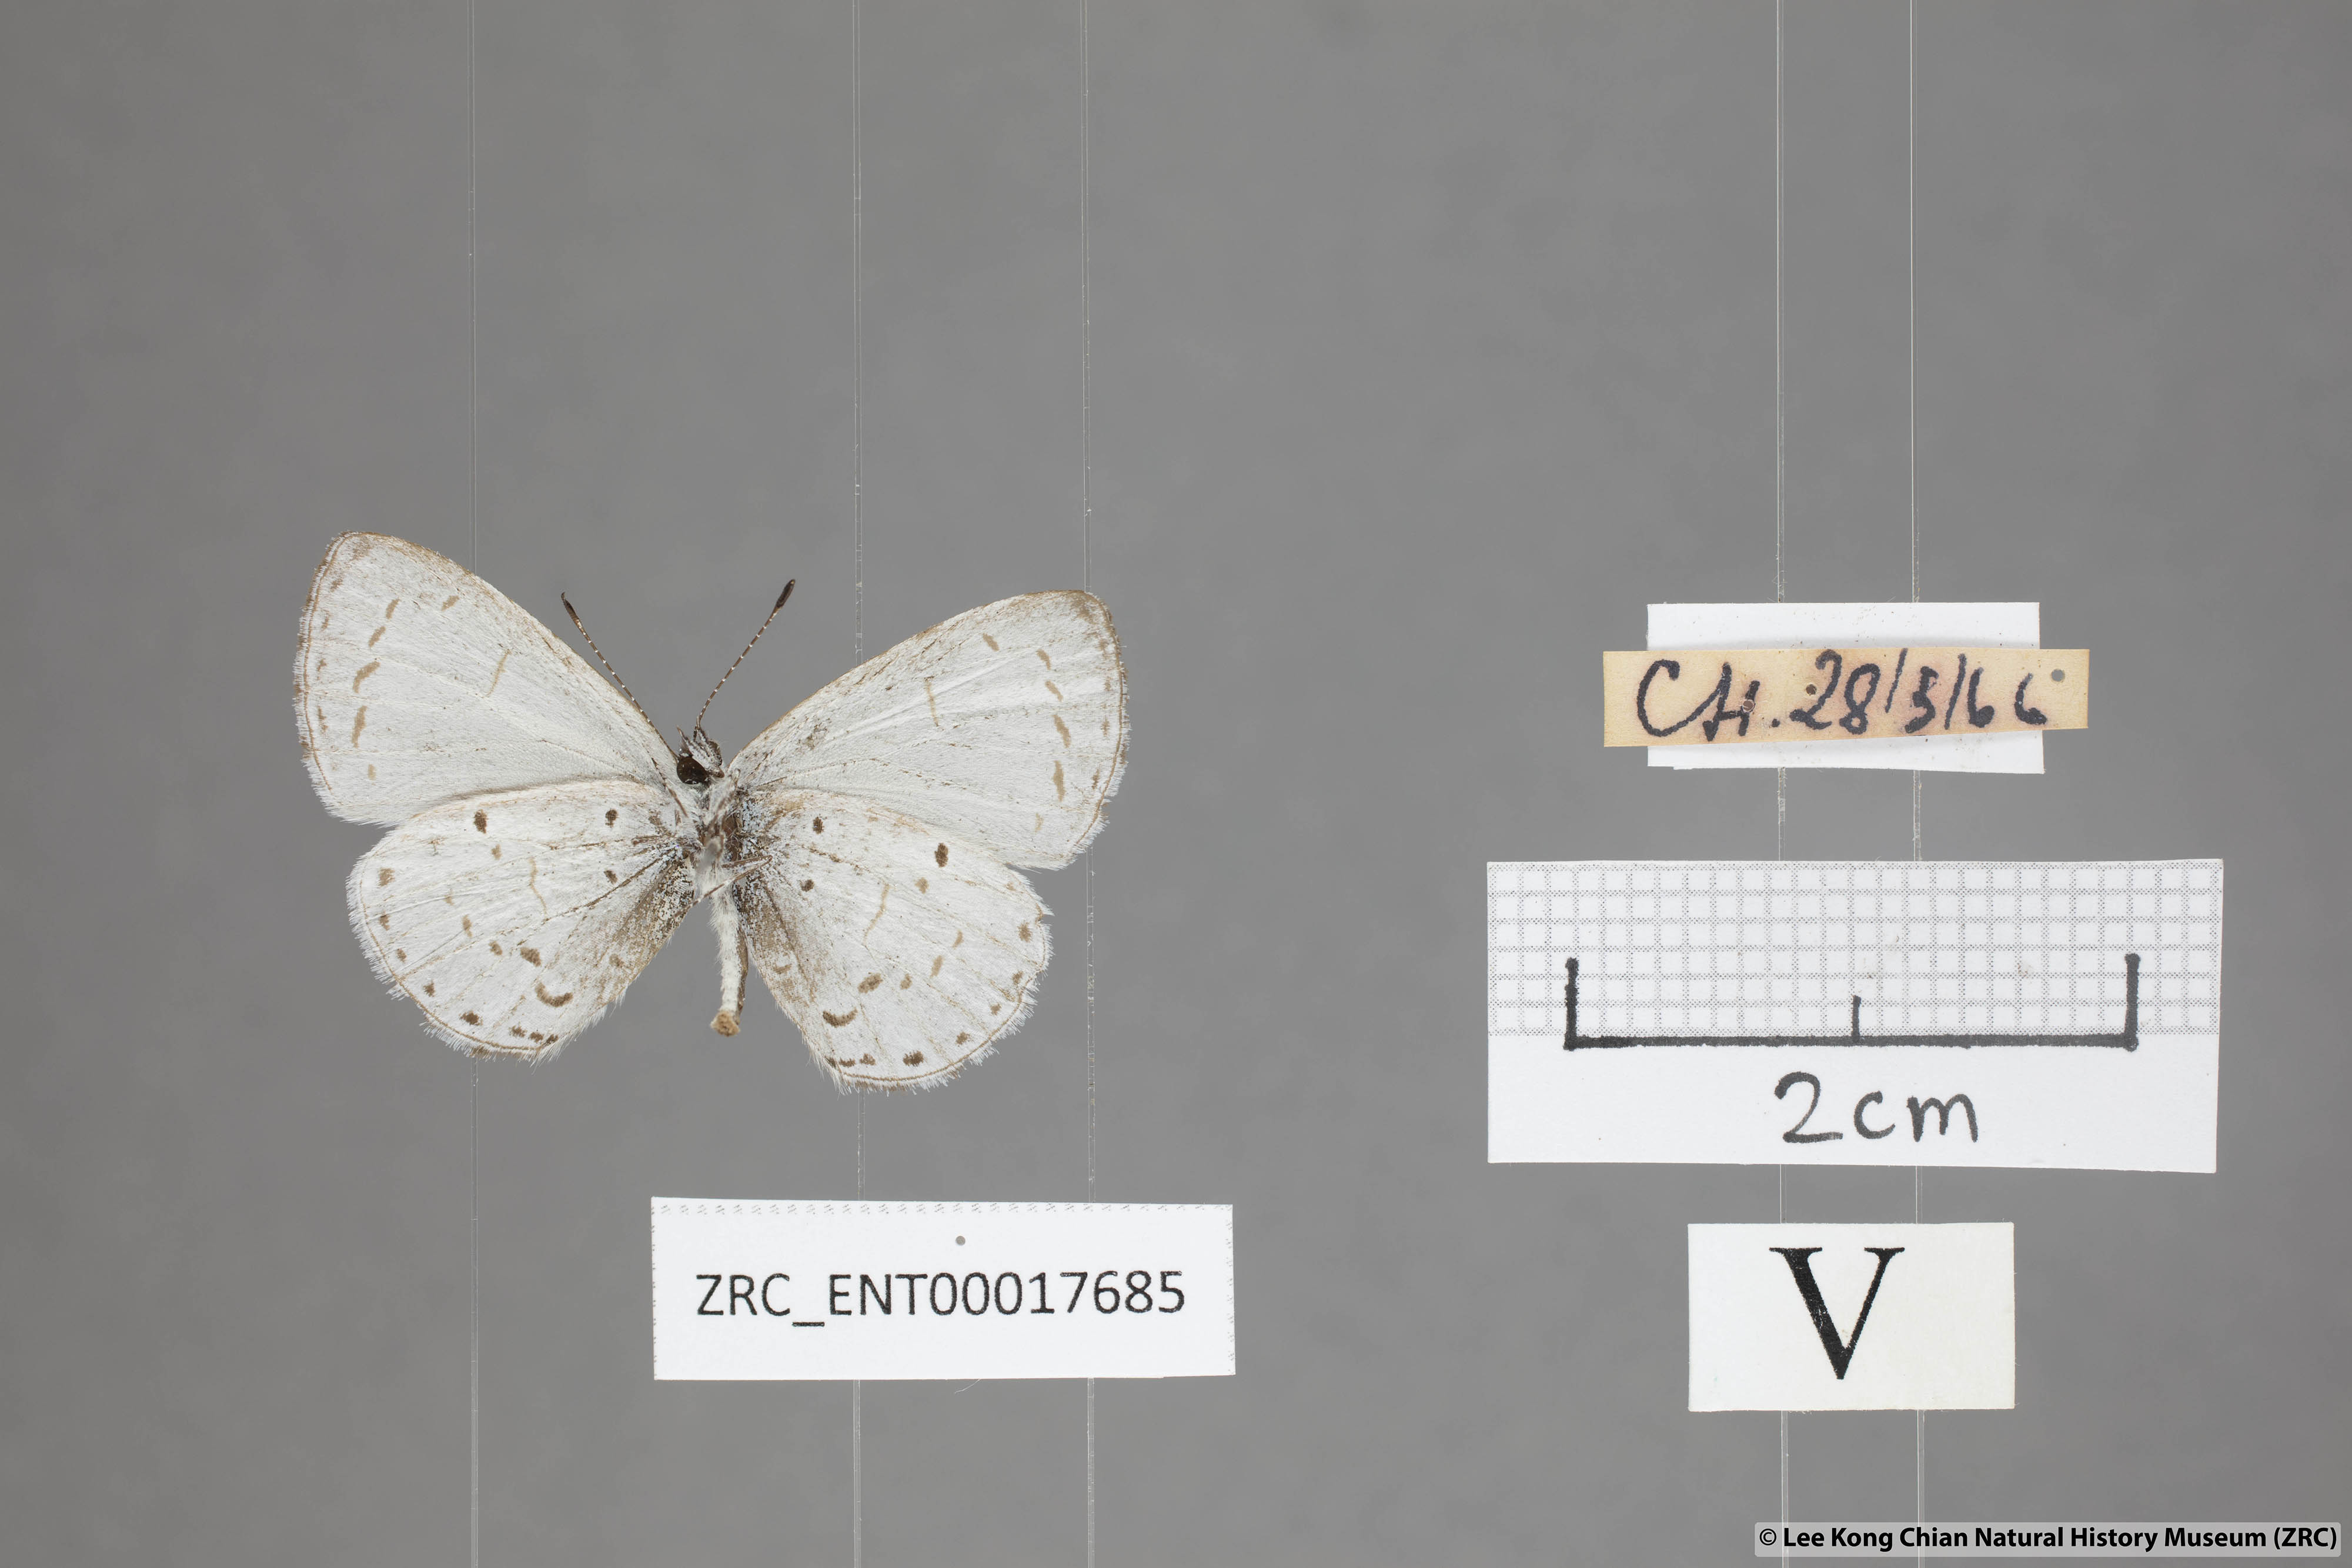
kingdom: Animalia
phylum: Arthropoda
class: Insecta
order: Lepidoptera
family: Lycaenidae
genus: Udara
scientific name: Udara camenae
